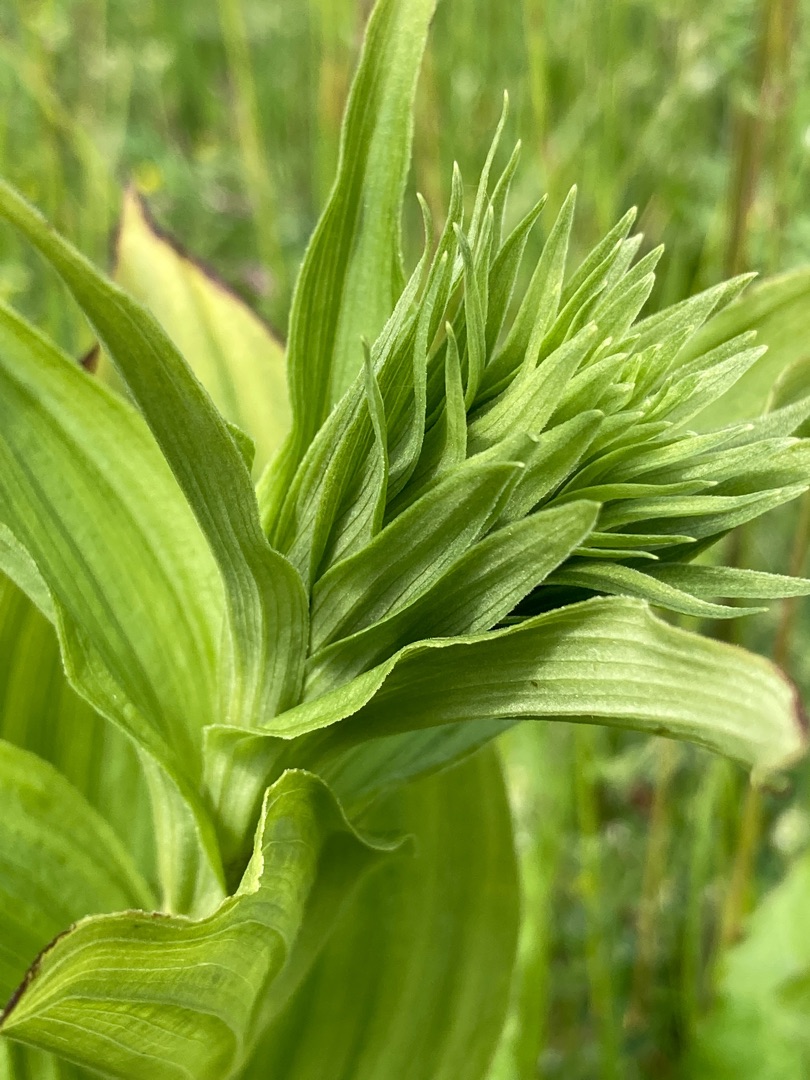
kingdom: Plantae
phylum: Tracheophyta
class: Liliopsida
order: Asparagales
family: Orchidaceae
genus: Epipactis
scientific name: Epipactis helleborine
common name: Skov-hullæbe
